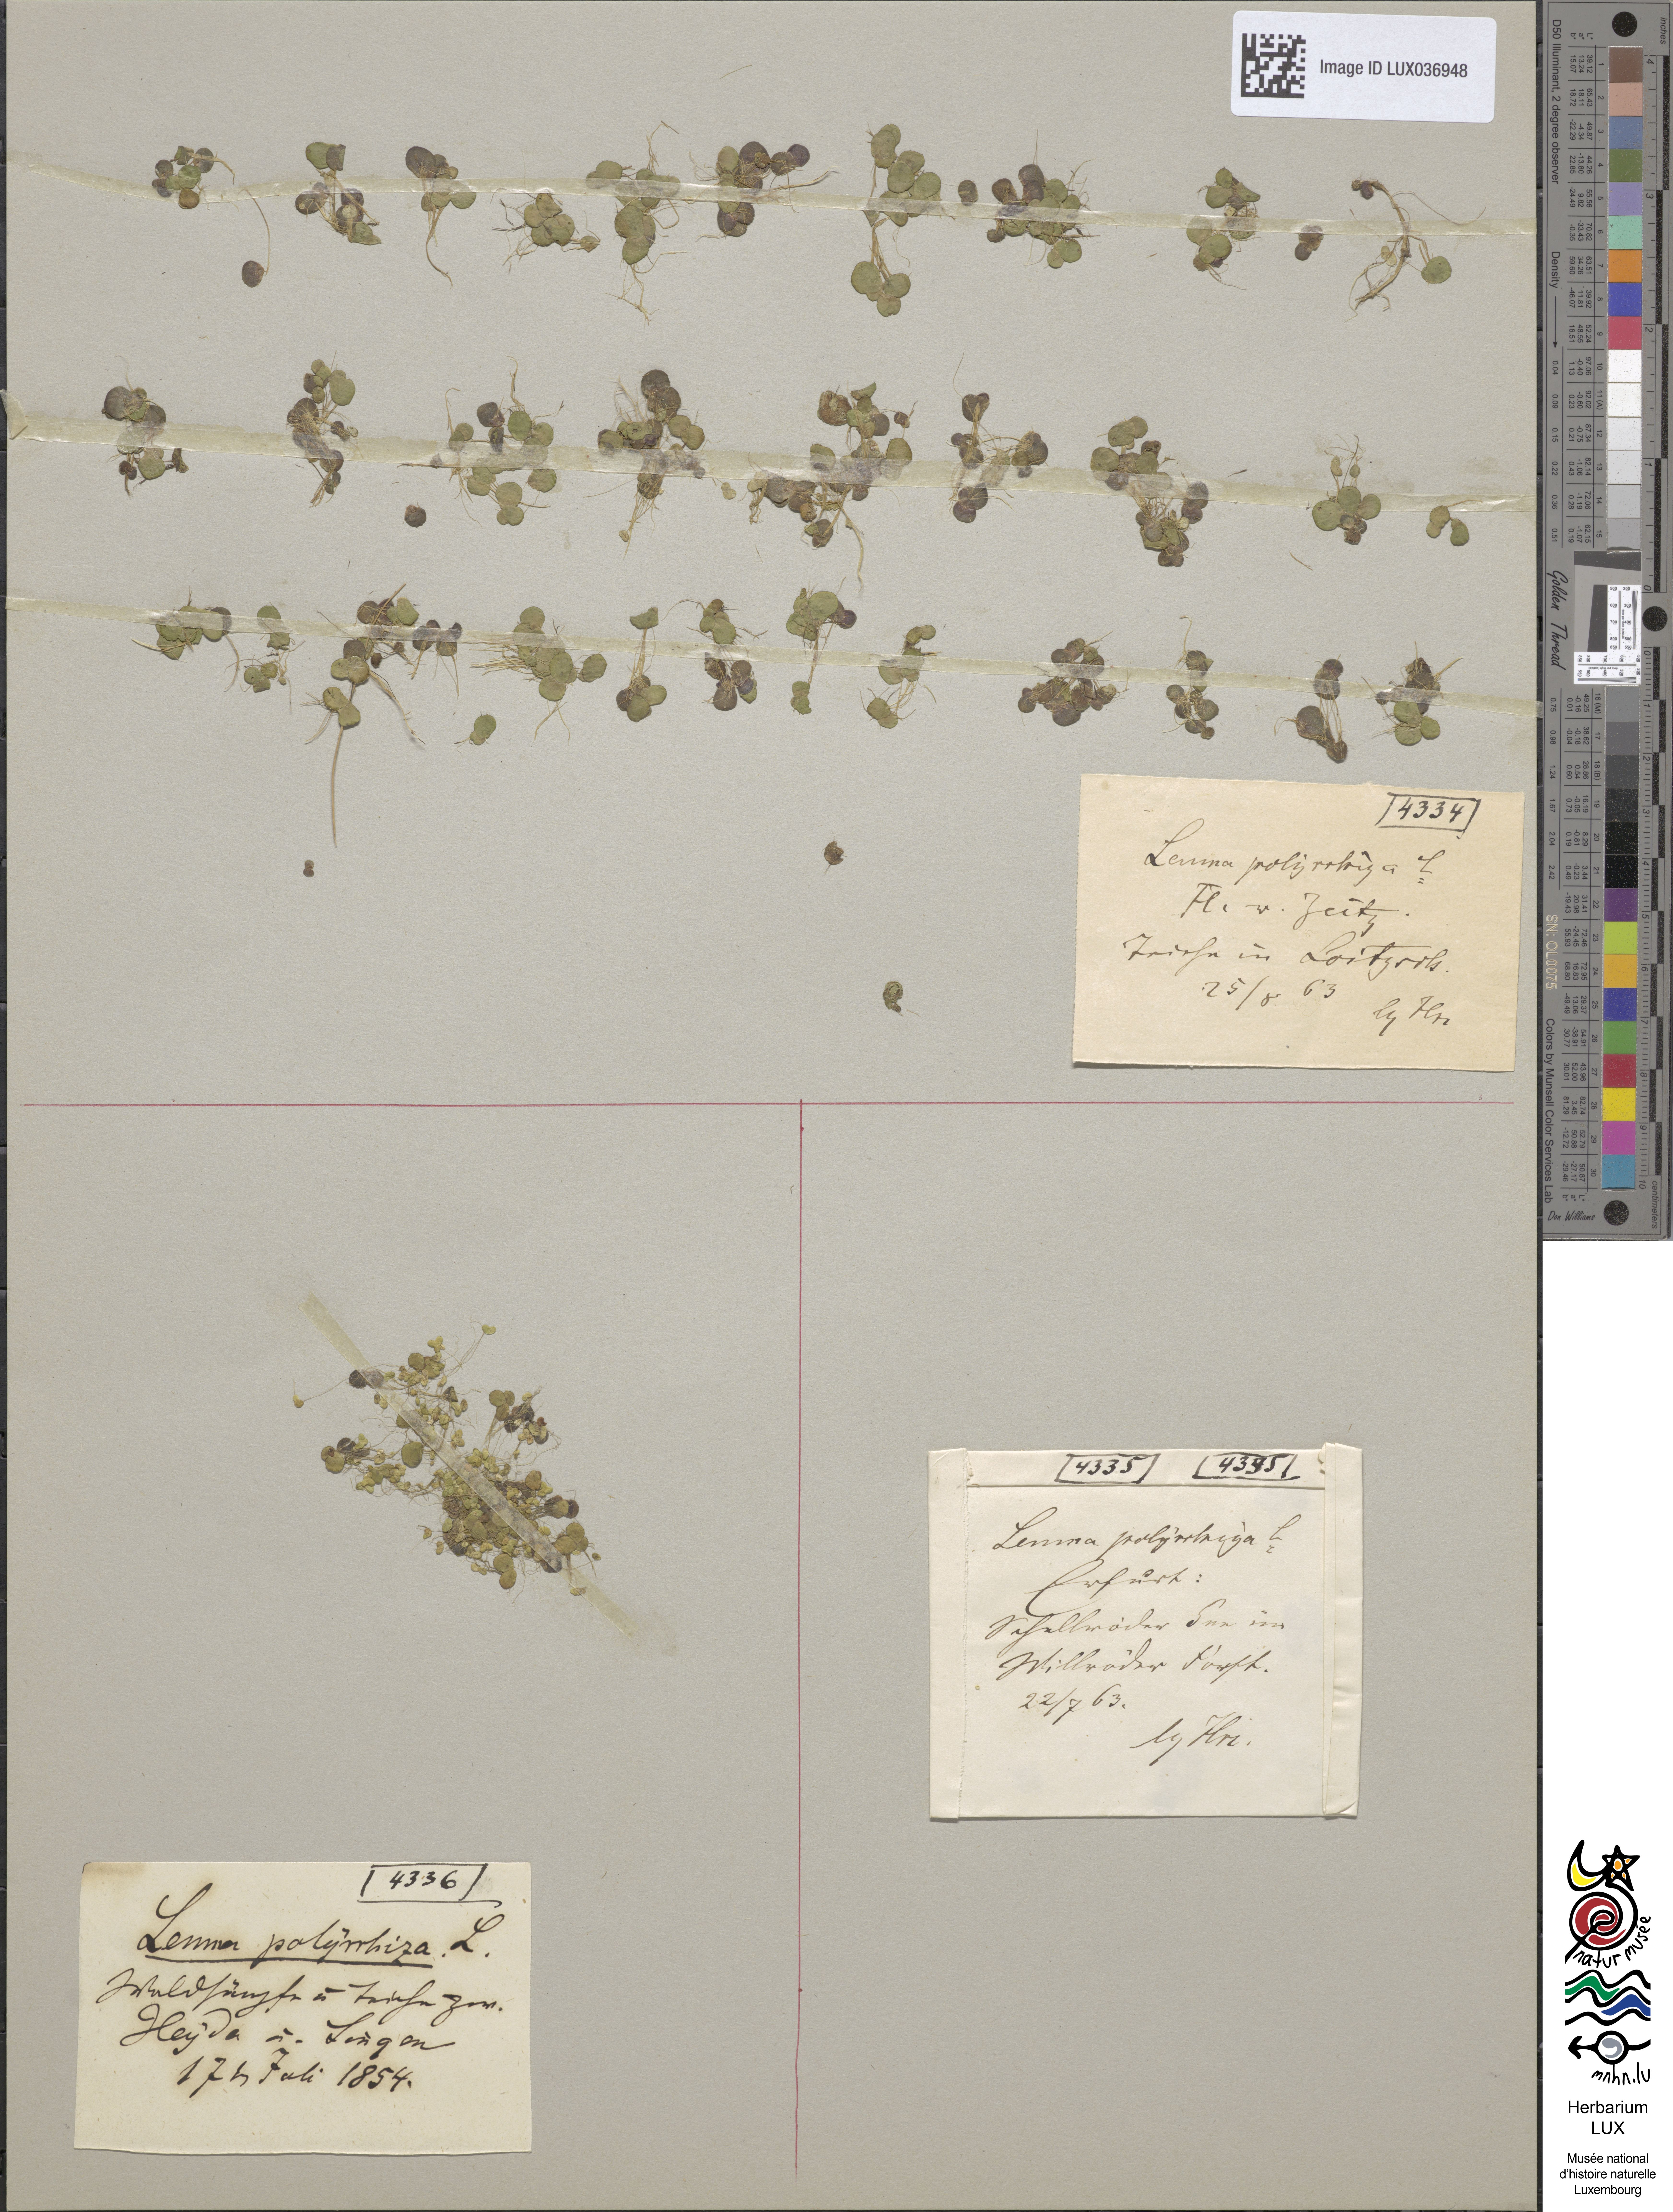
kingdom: Plantae
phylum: Tracheophyta
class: Liliopsida
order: Alismatales
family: Araceae
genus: Spirodela
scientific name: Spirodela polyrhiza
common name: Great duckweed
